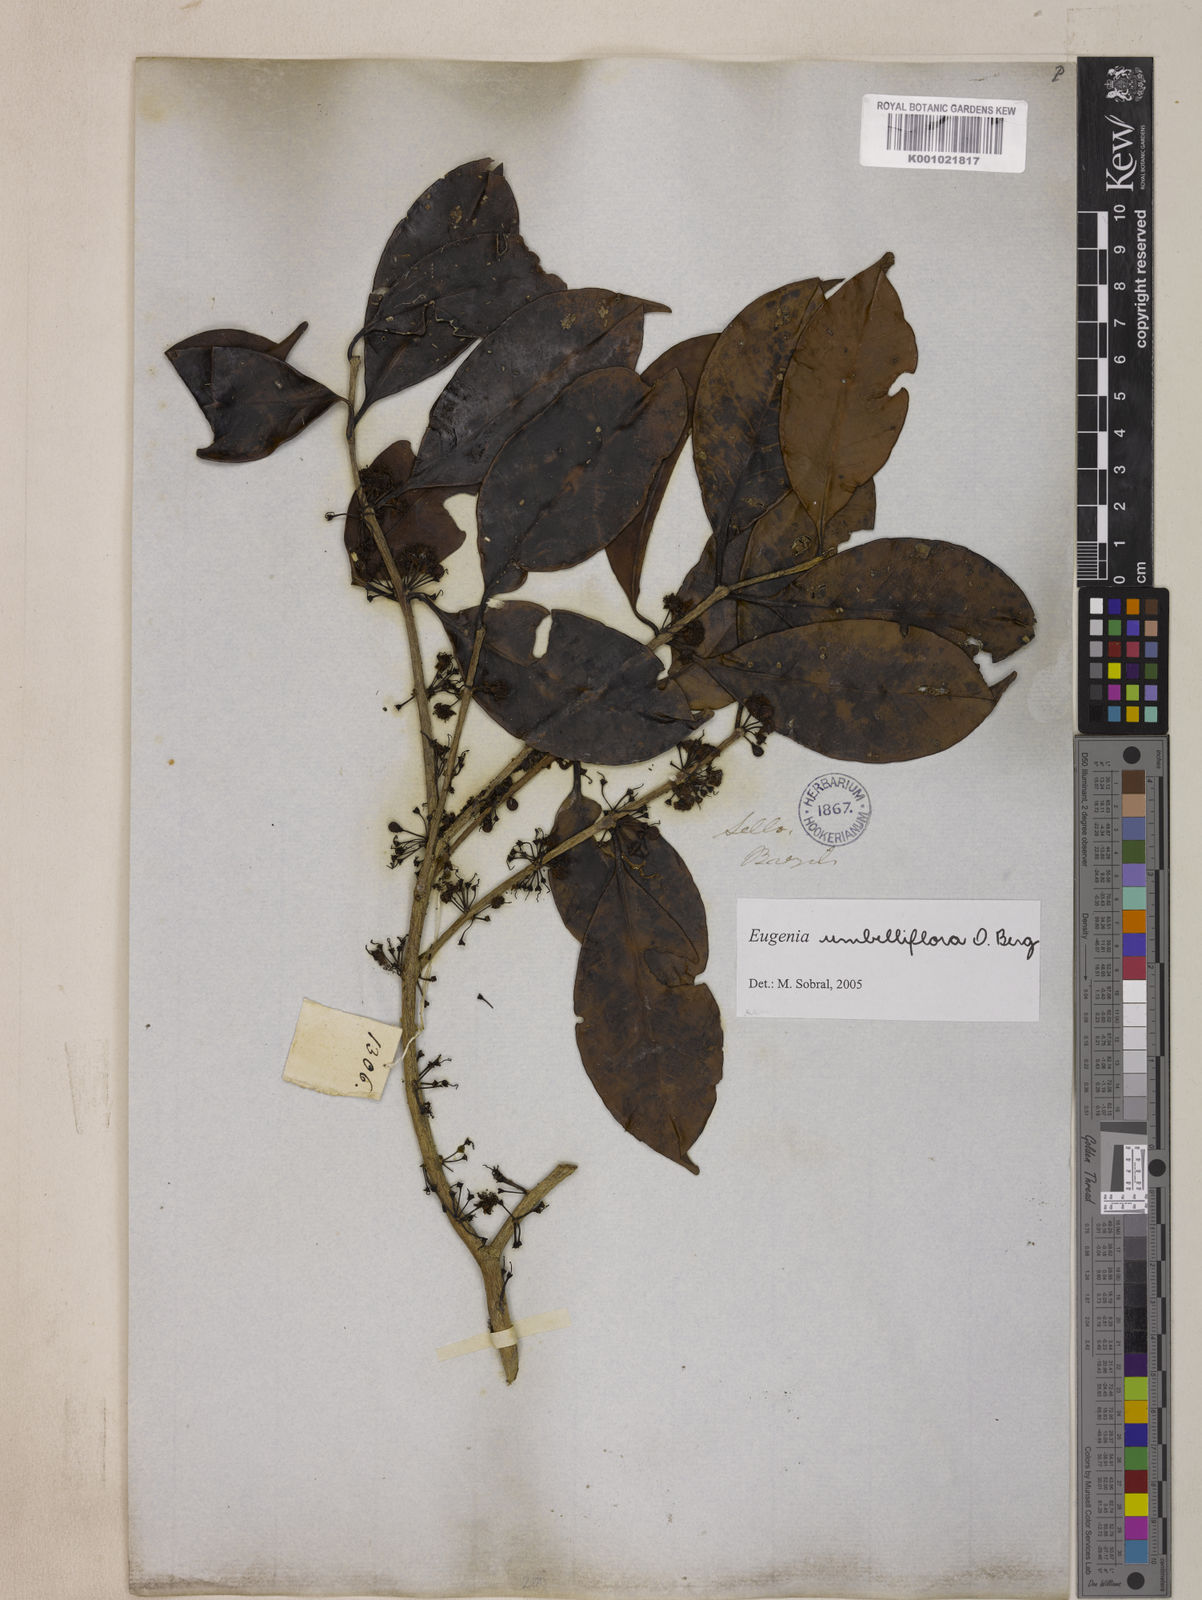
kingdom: Plantae
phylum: Tracheophyta
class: Magnoliopsida
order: Myrtales
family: Myrtaceae
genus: Eugenia
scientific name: Eugenia astringens
